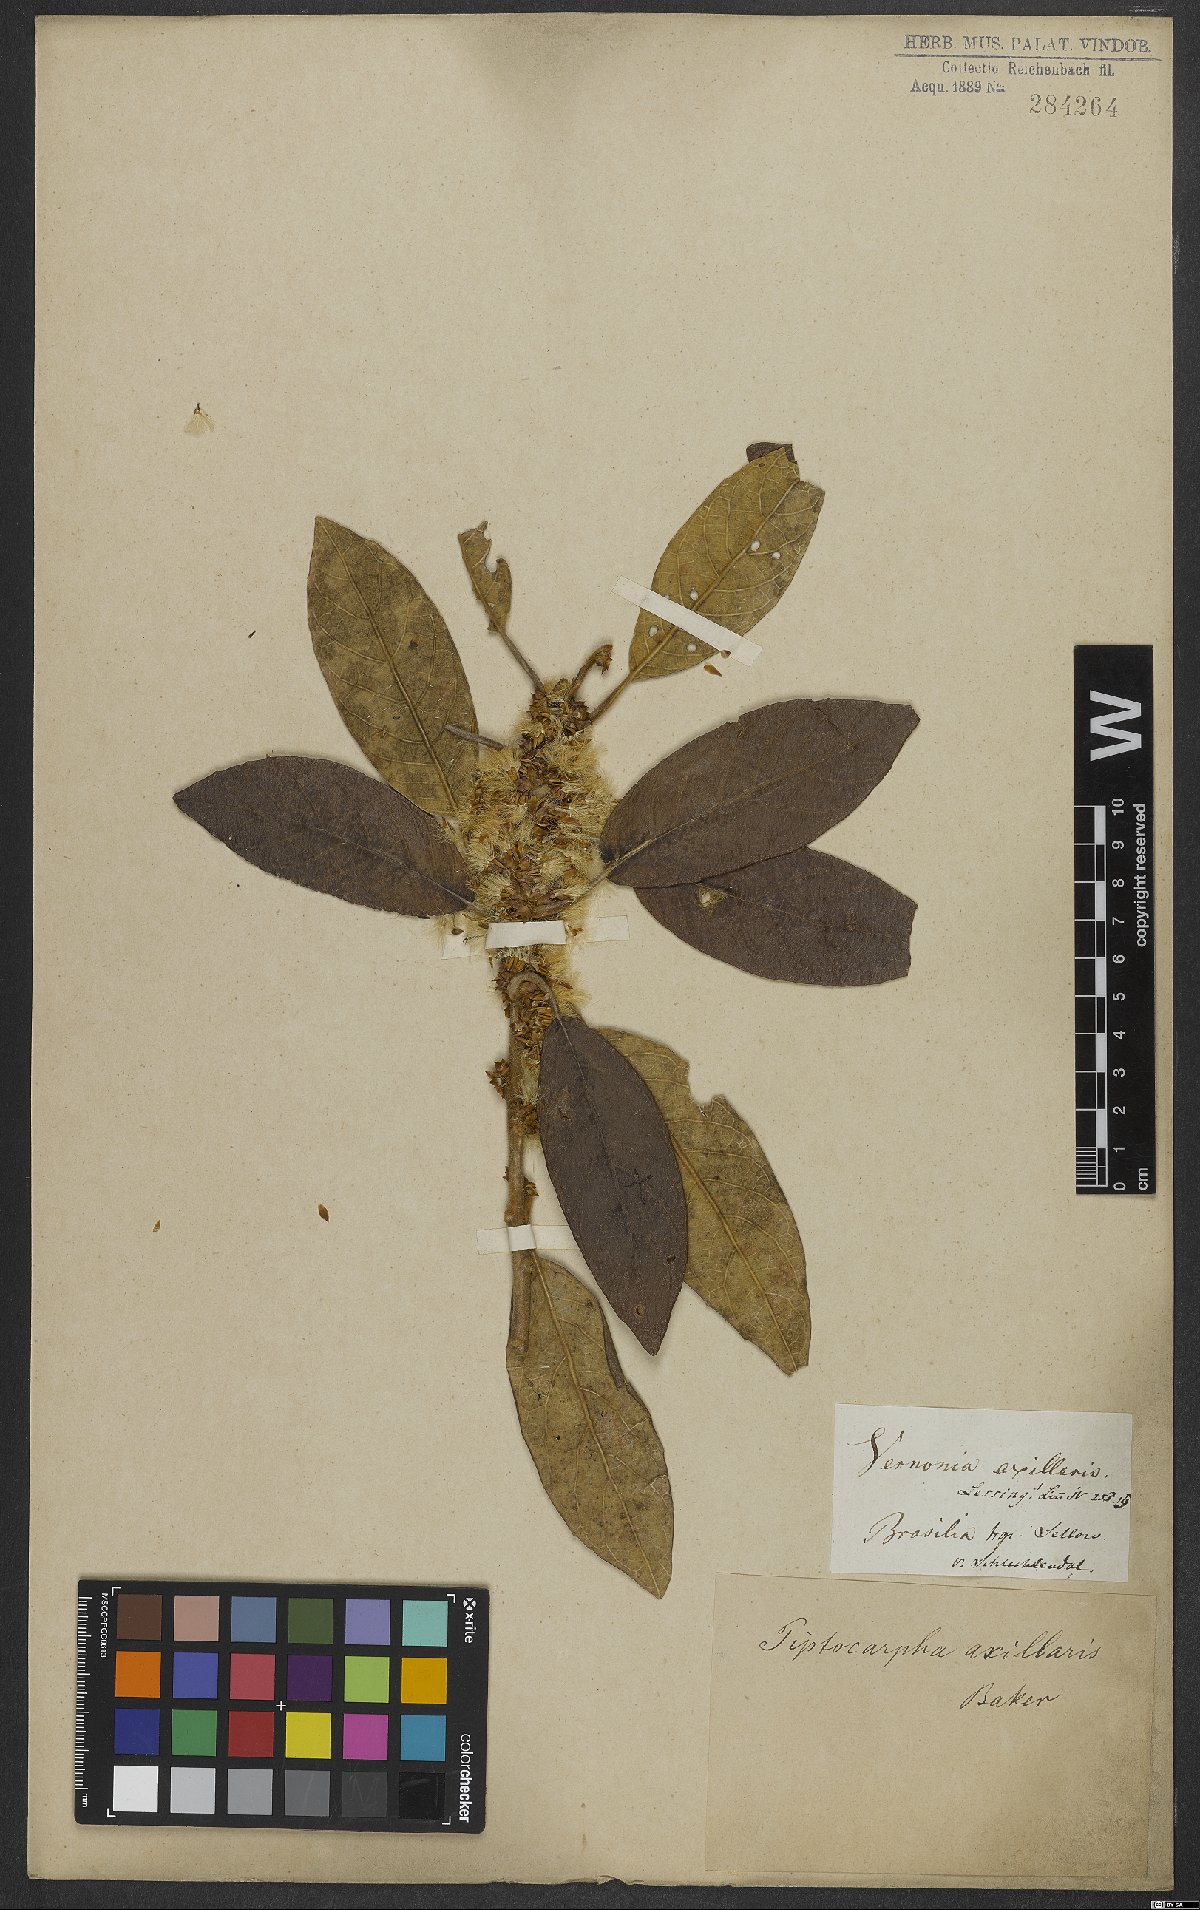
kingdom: Plantae
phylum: Tracheophyta
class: Magnoliopsida
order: Asterales
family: Asteraceae
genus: Piptocarpha
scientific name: Piptocarpha axillaris
